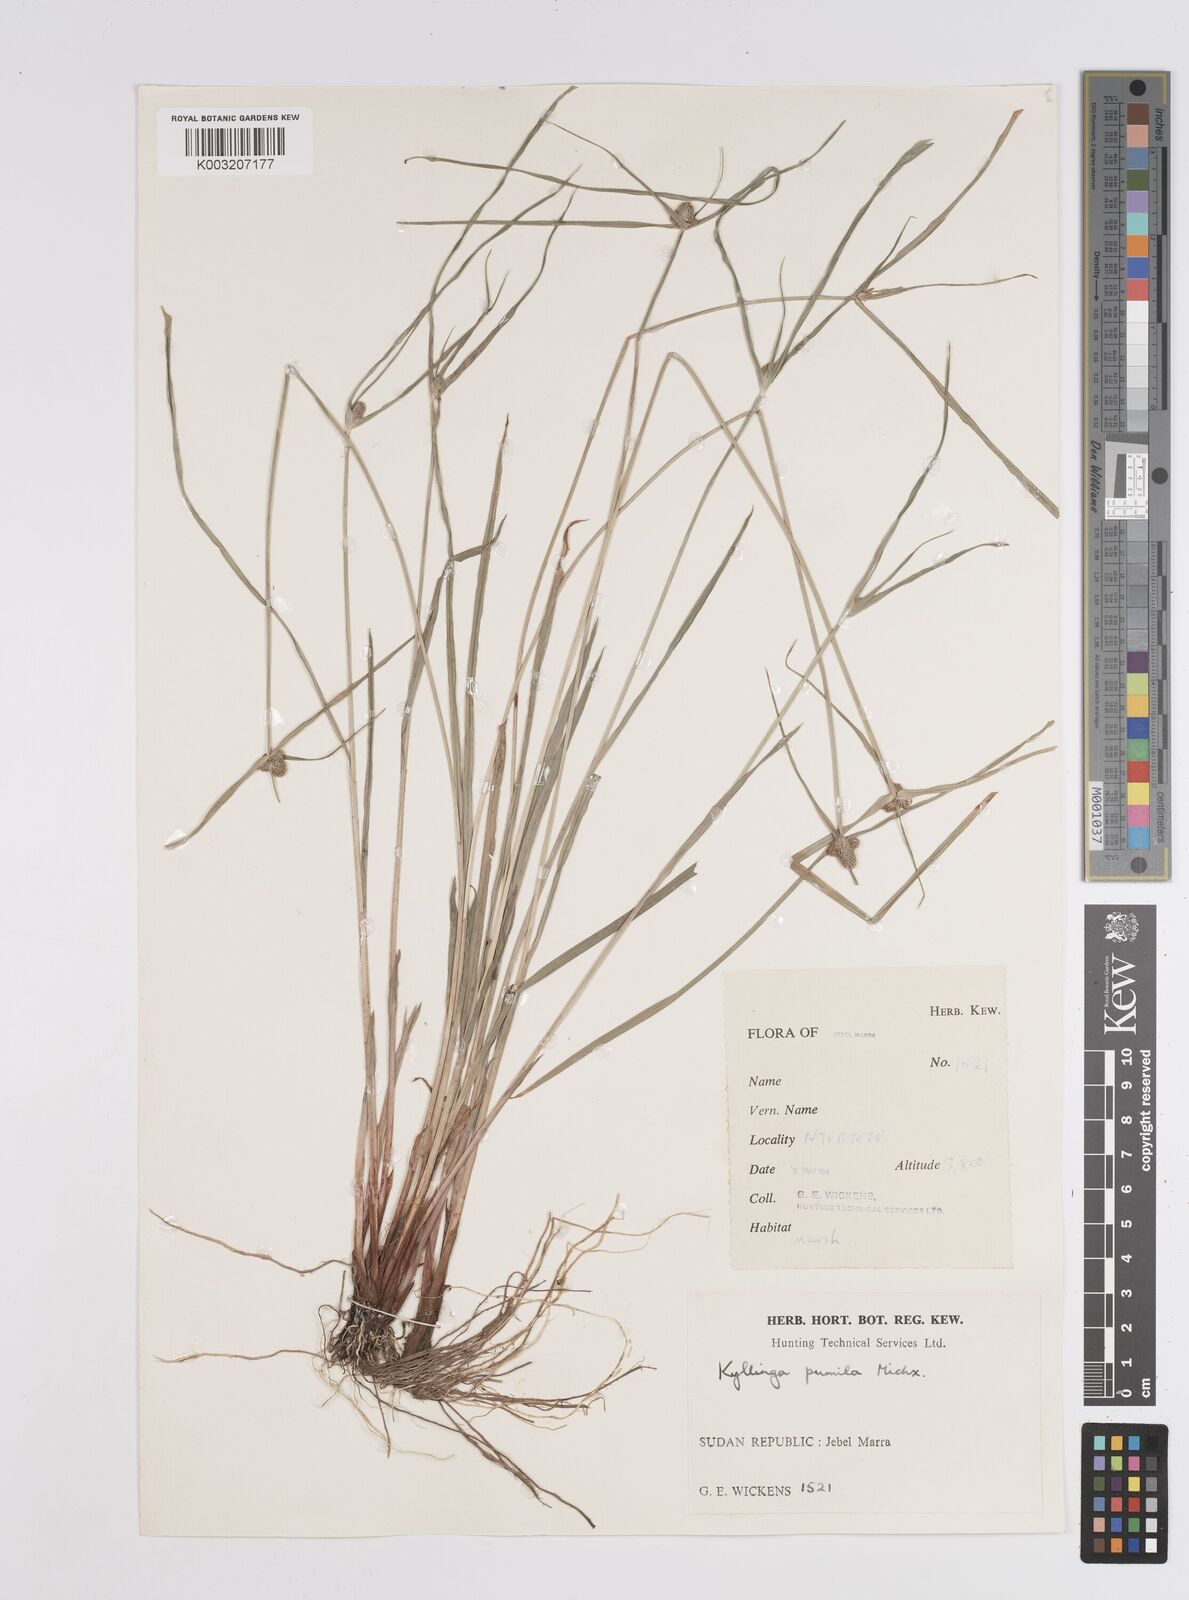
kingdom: Plantae
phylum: Tracheophyta
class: Liliopsida
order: Poales
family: Cyperaceae
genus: Cyperus
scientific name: Cyperus
